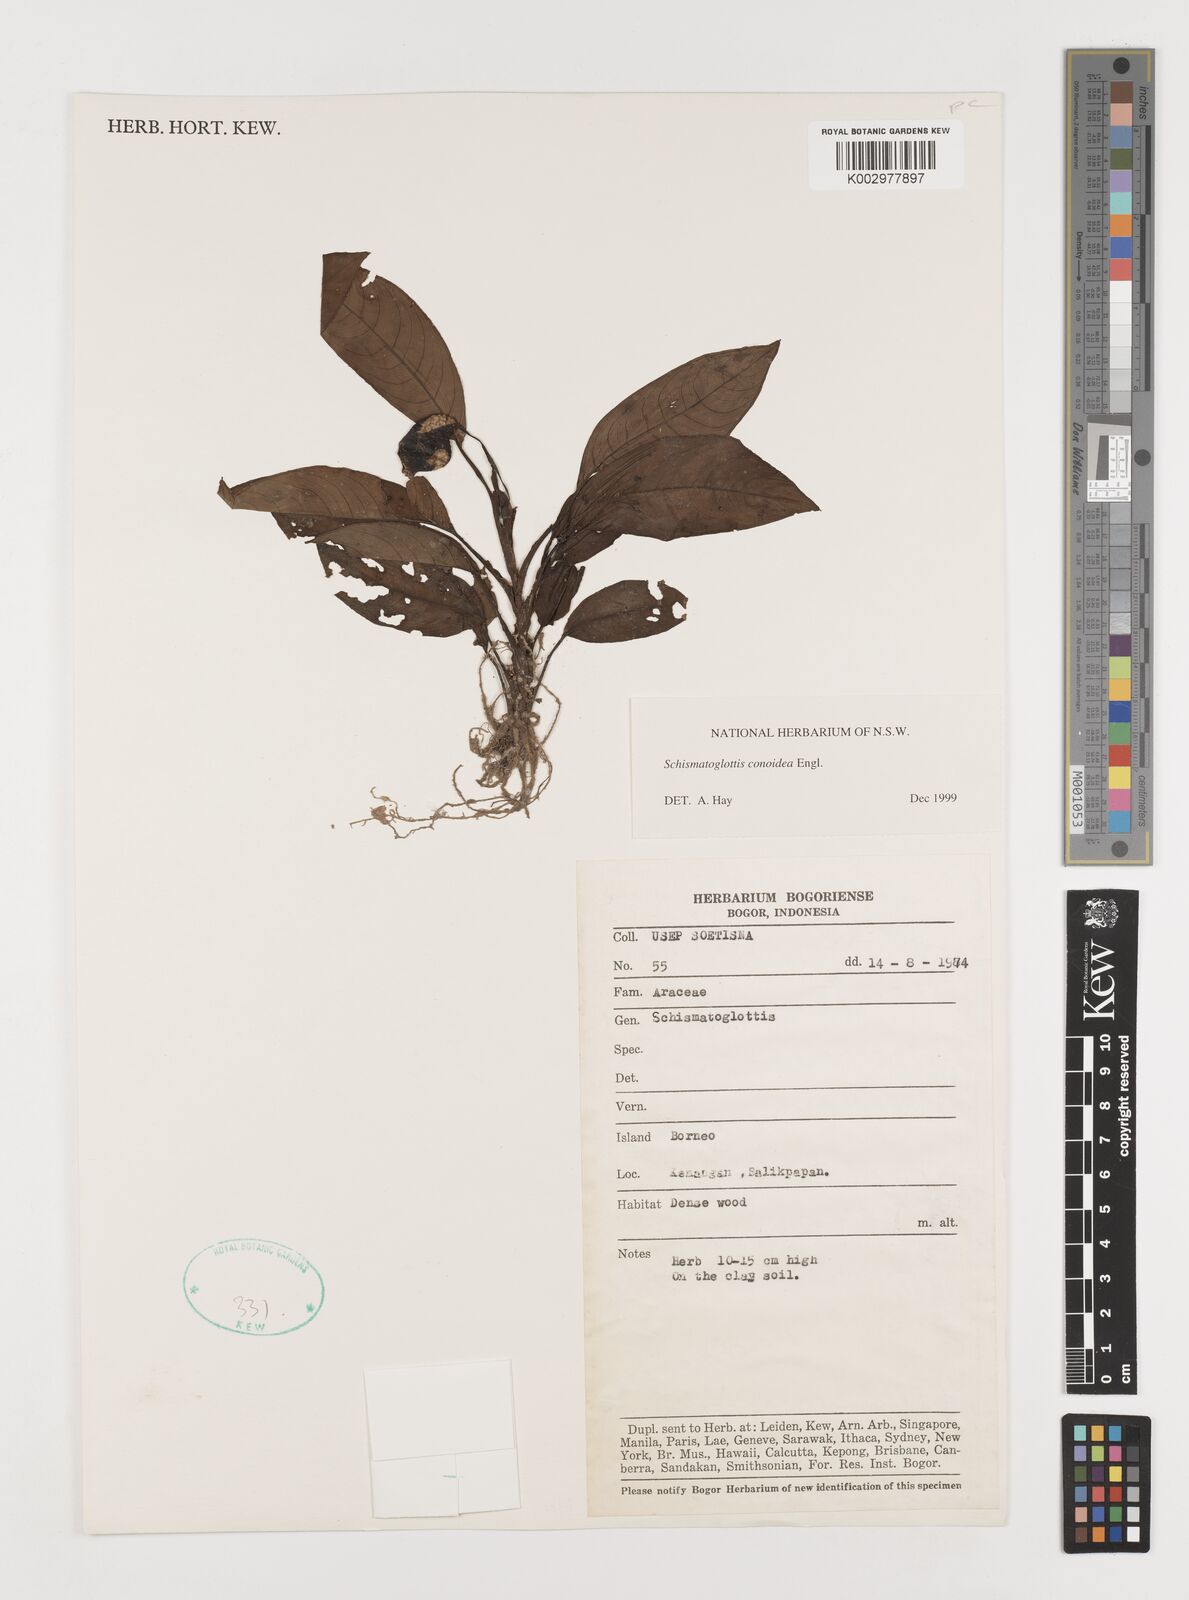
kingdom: Plantae
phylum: Tracheophyta
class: Liliopsida
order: Alismatales
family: Araceae
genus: Schismatoglottis
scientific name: Schismatoglottis conoidea
